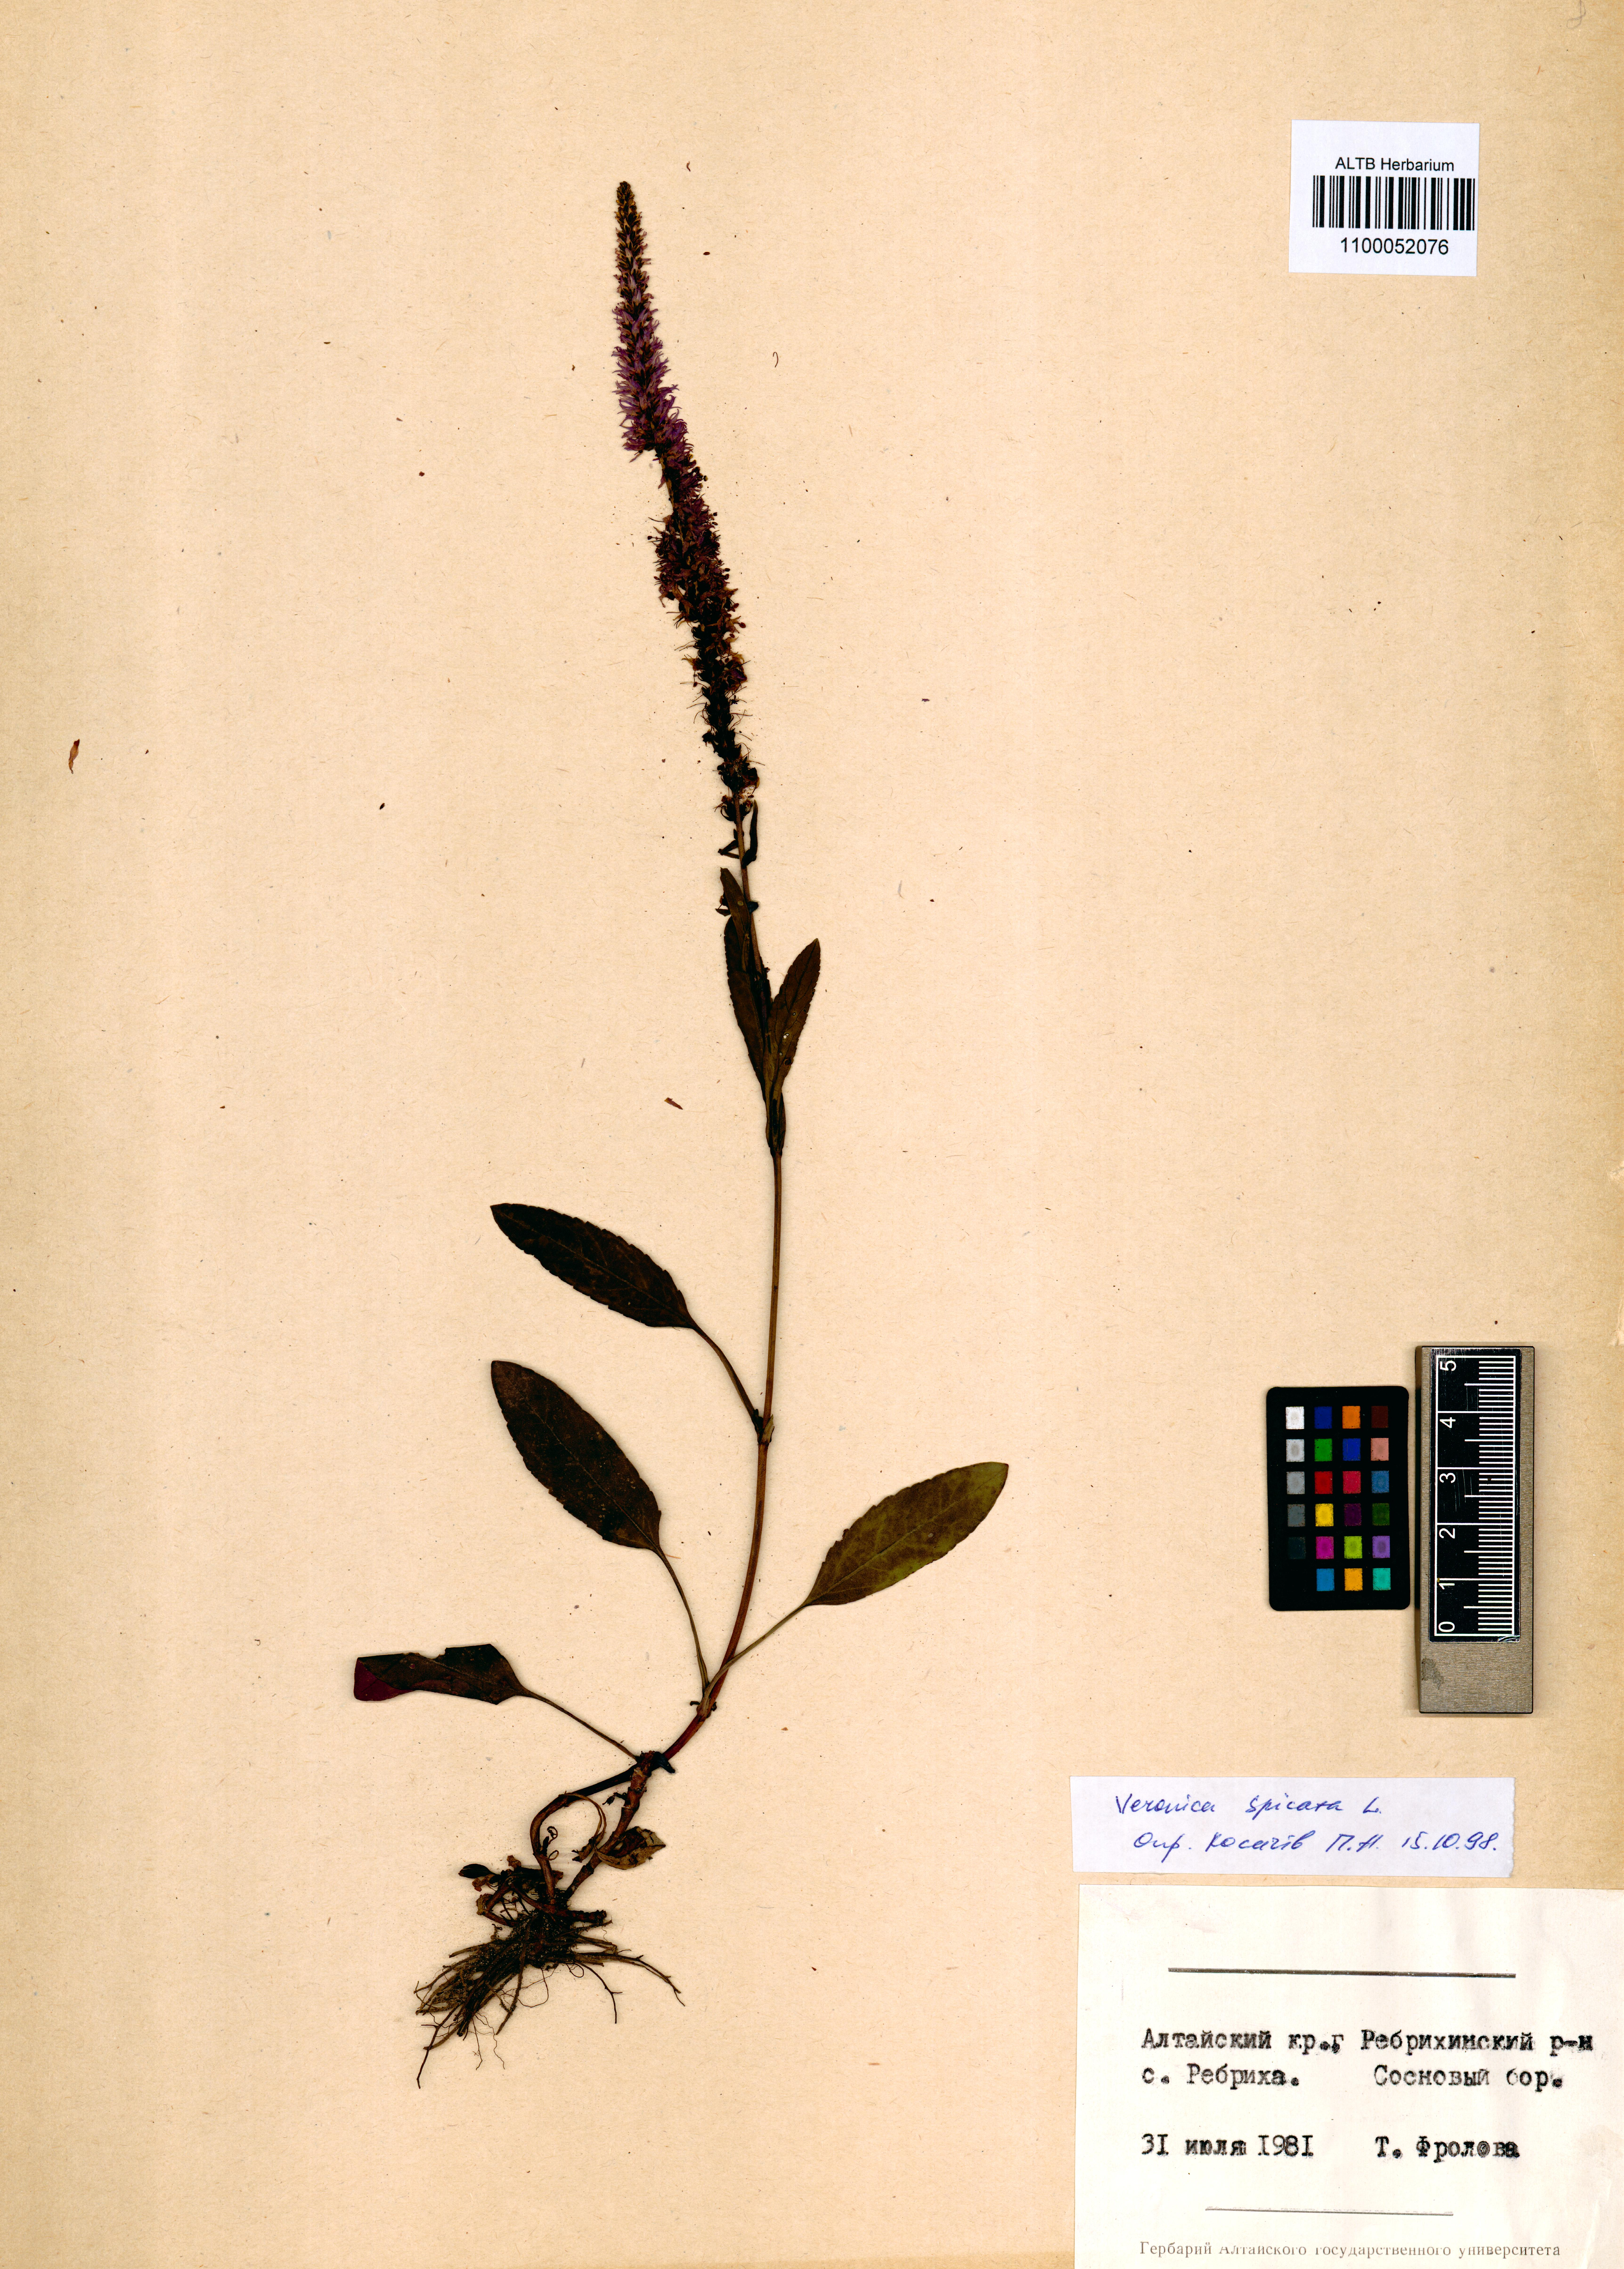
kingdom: Plantae
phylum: Tracheophyta
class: Magnoliopsida
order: Lamiales
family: Plantaginaceae
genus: Veronica
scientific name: Veronica spicata
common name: Spiked speedwell
